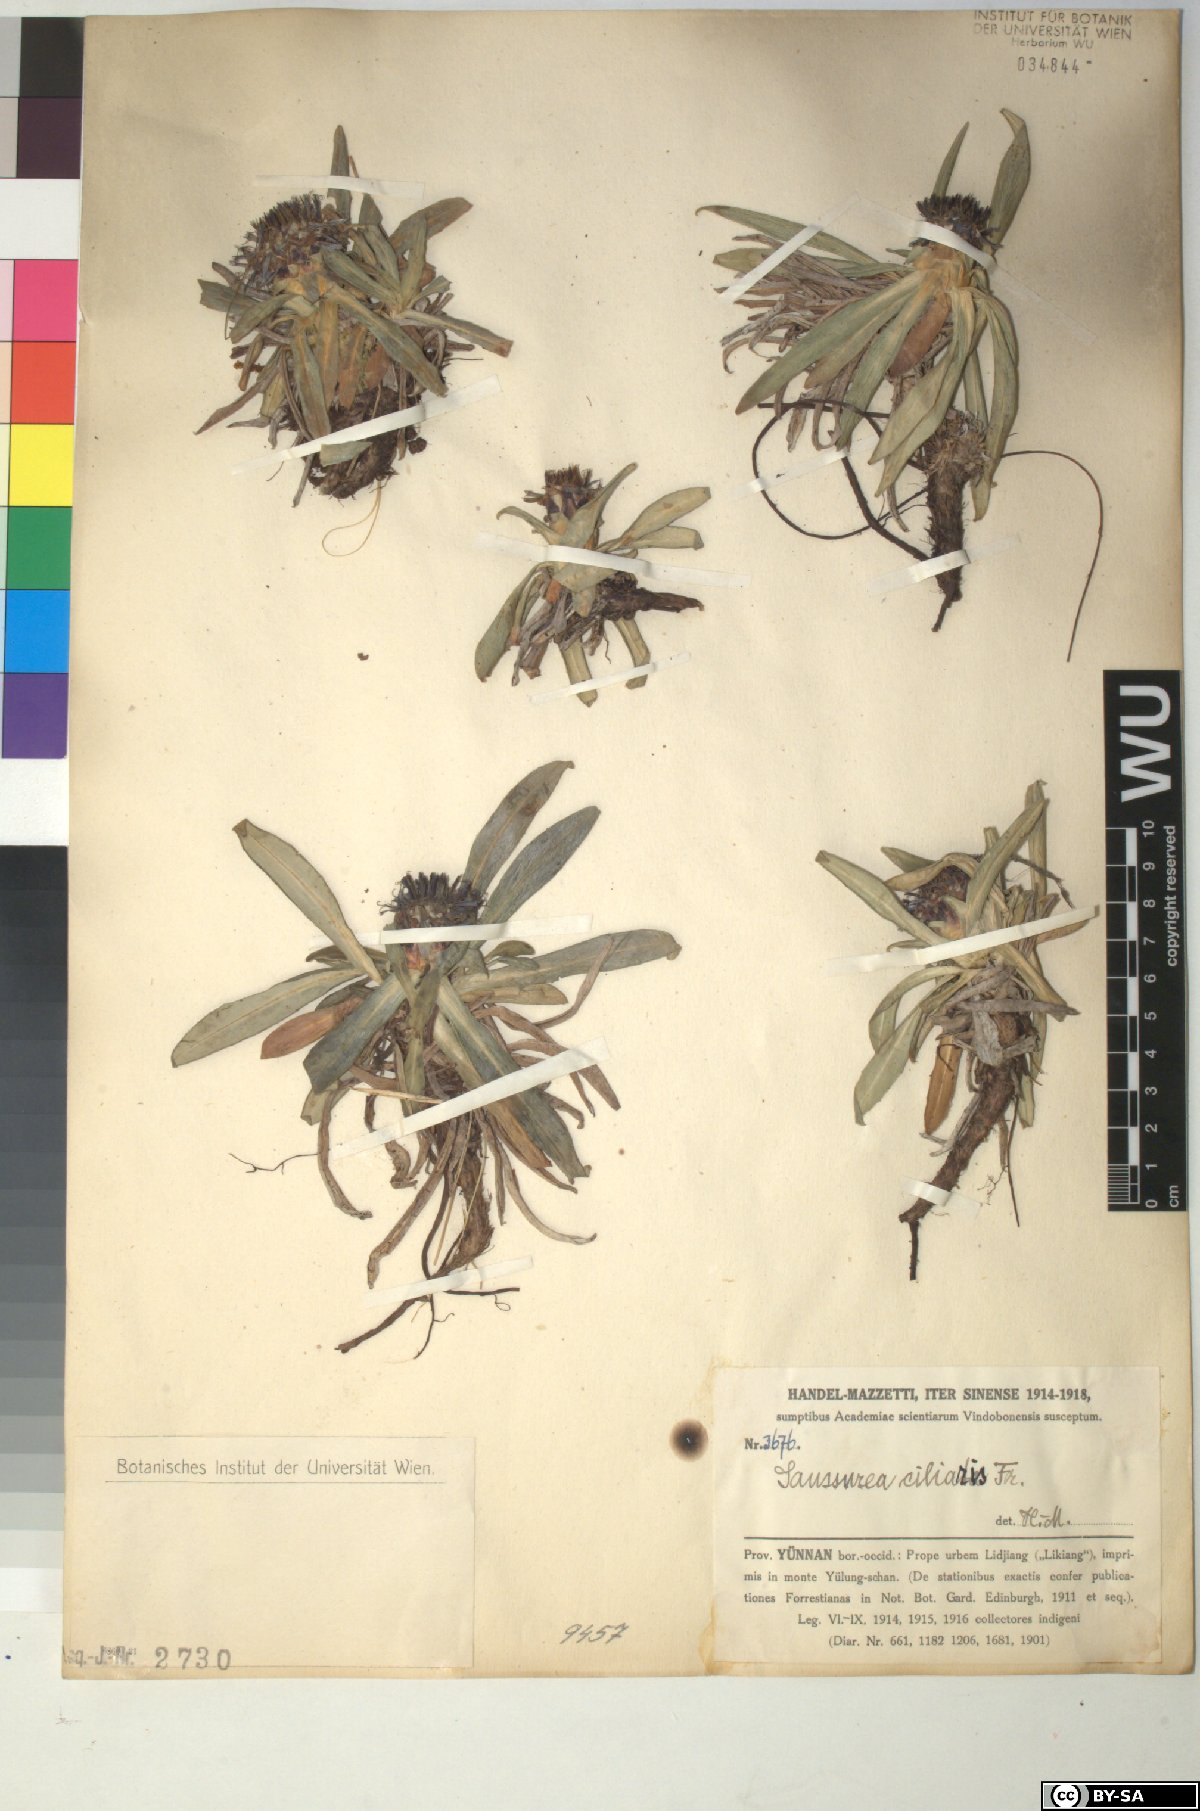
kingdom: Plantae
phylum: Tracheophyta
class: Magnoliopsida
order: Asterales
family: Asteraceae
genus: Saussurea
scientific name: Saussurea ciliaris
